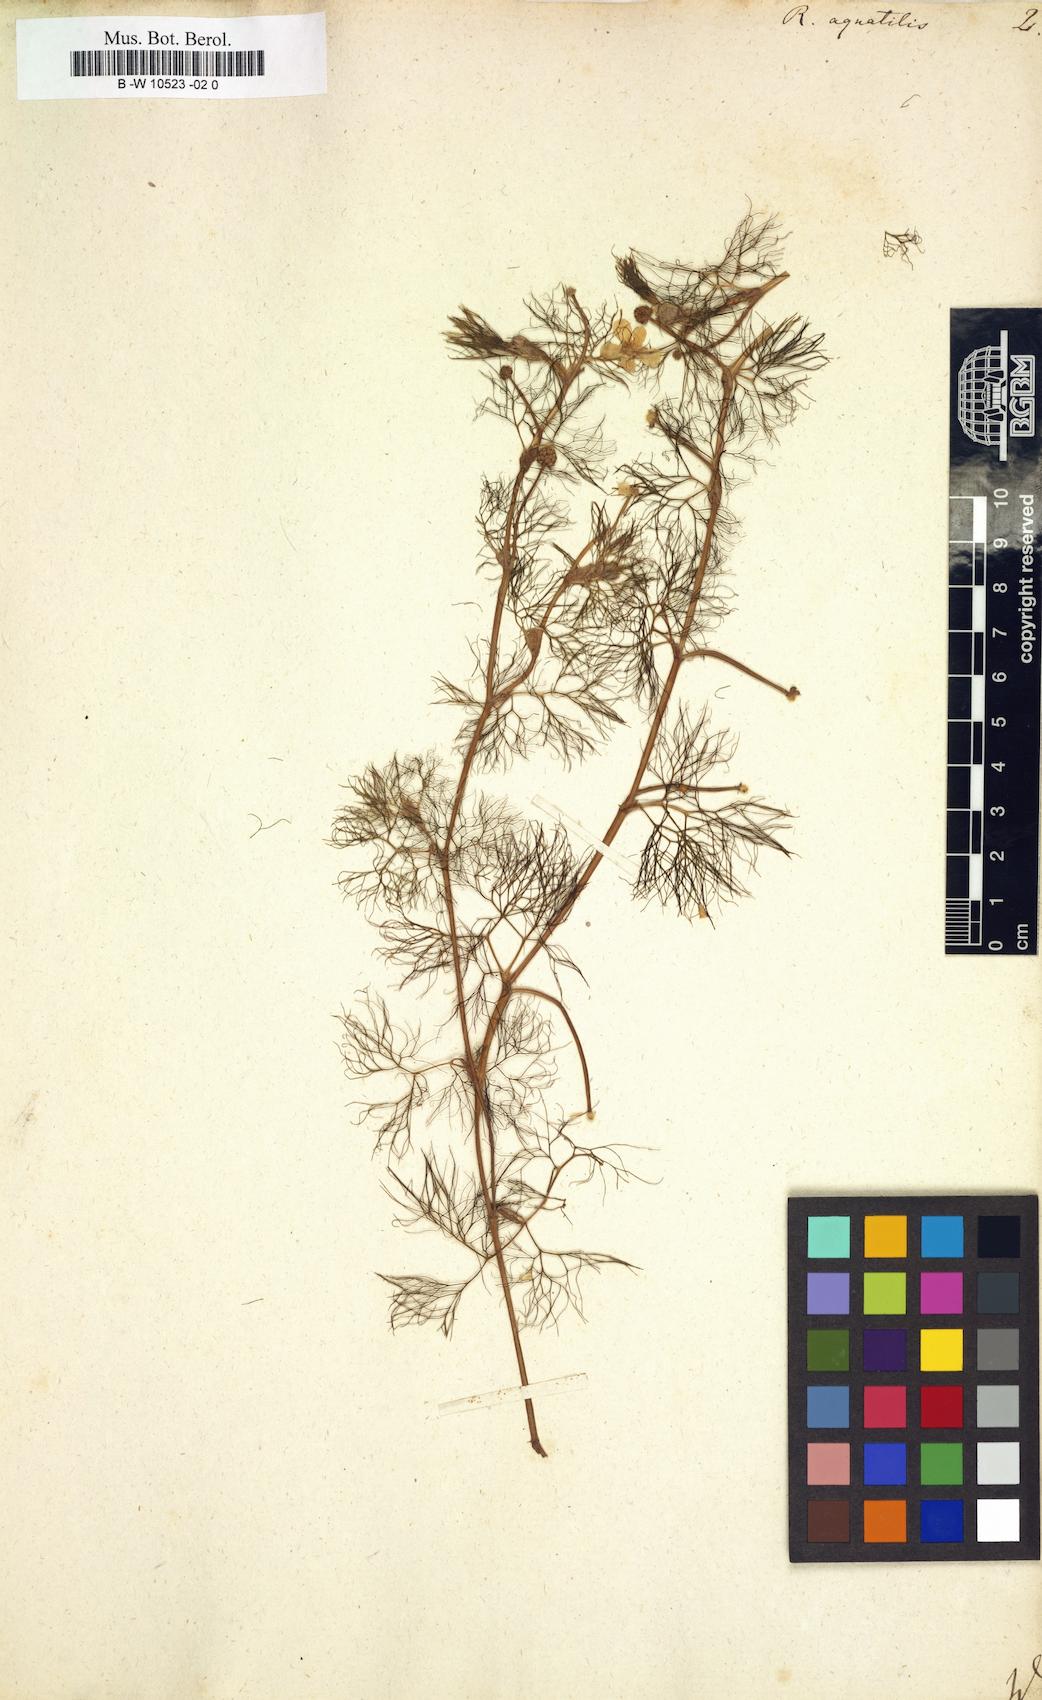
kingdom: Plantae
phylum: Tracheophyta
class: Magnoliopsida
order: Ranunculales
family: Ranunculaceae
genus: Ranunculus
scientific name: Ranunculus aquatilis
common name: Common water-crowfoot
